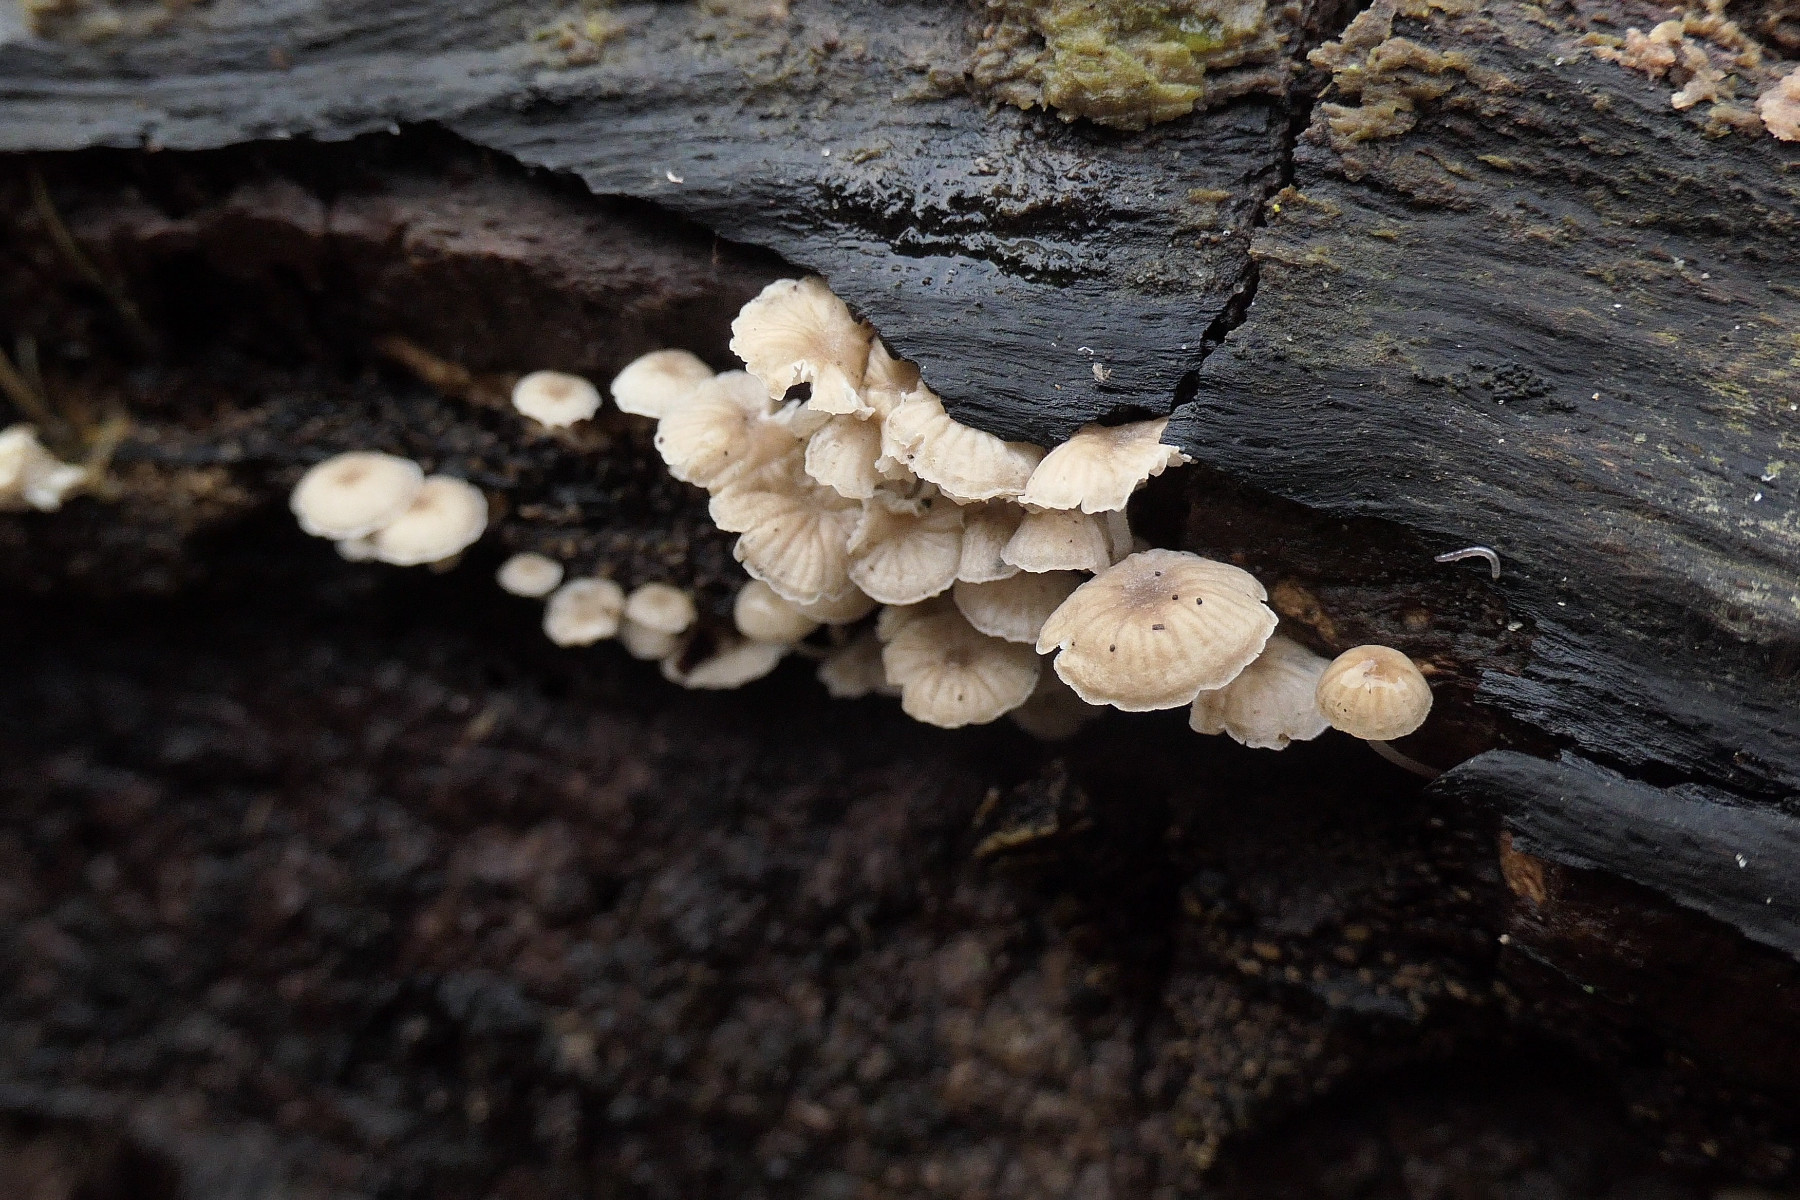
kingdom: Fungi
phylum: Basidiomycota
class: Agaricomycetes
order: Agaricales
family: Omphalotaceae
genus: Collybiopsis
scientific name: Collybiopsis ramealis
